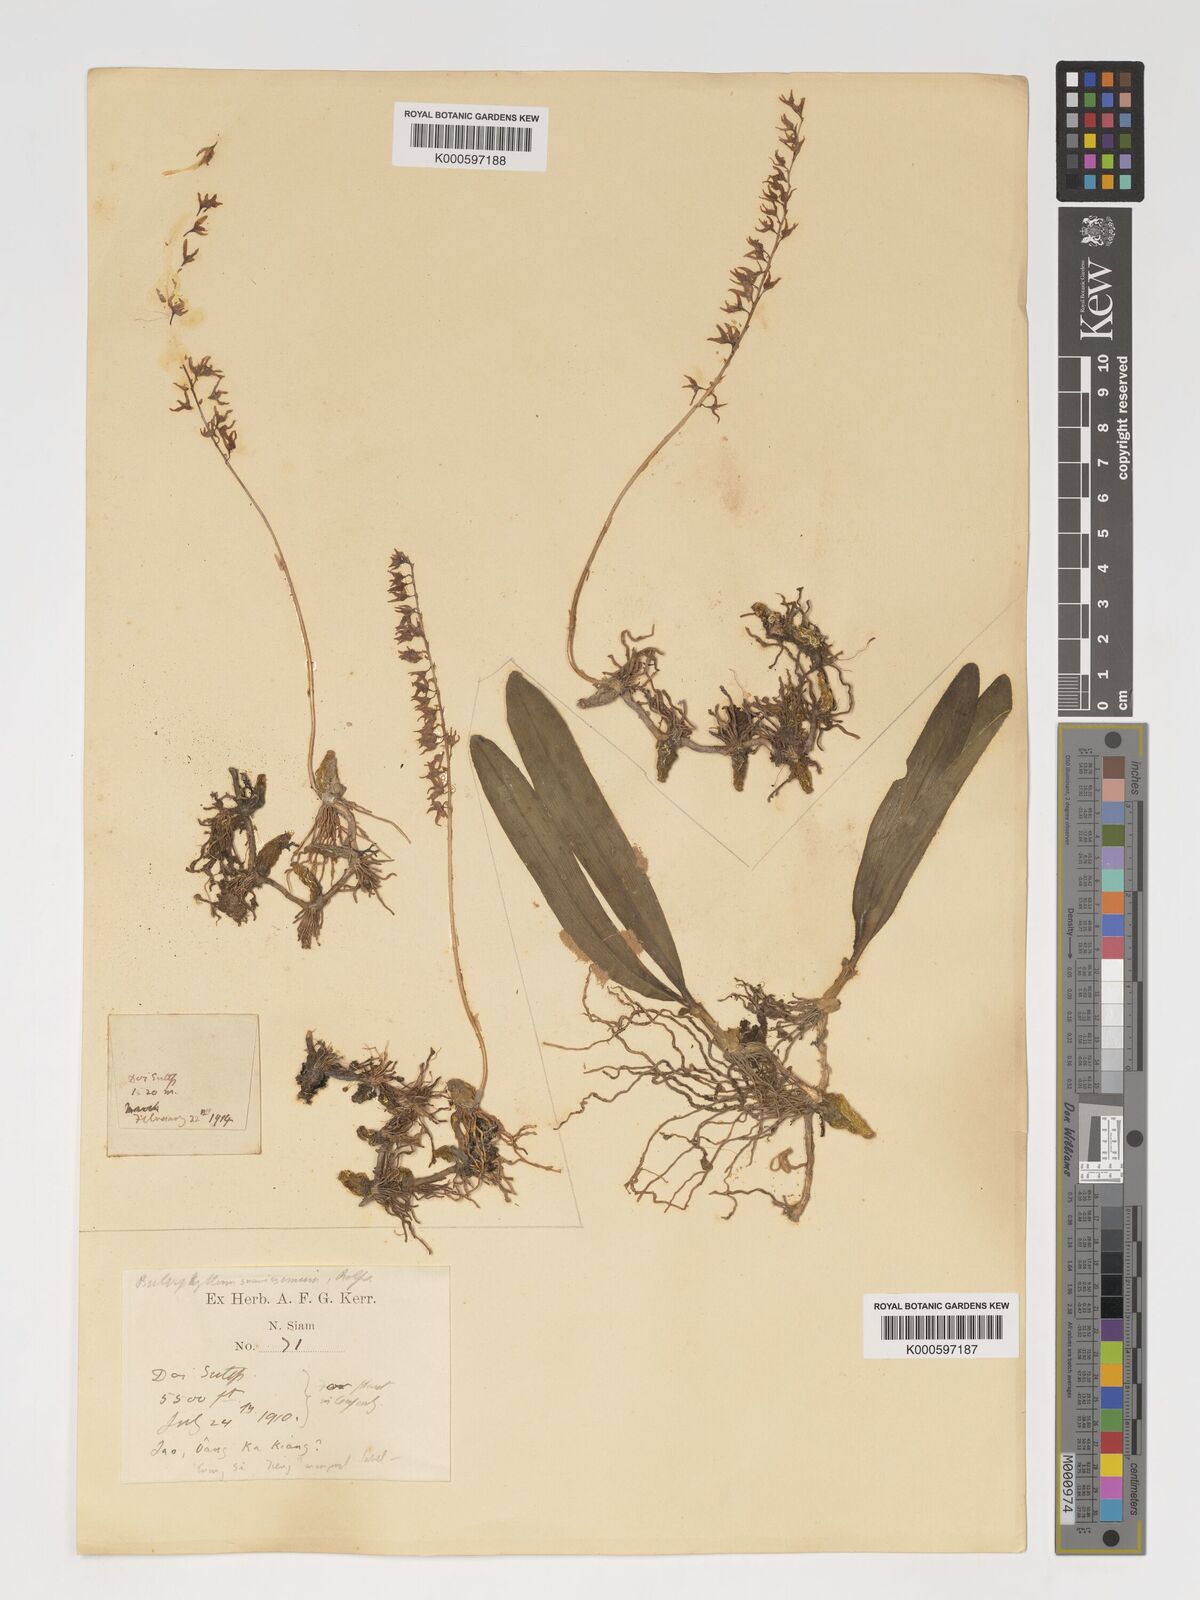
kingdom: Plantae
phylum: Tracheophyta
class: Liliopsida
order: Asparagales
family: Orchidaceae
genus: Bulbophyllum
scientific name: Bulbophyllum suavissimum
